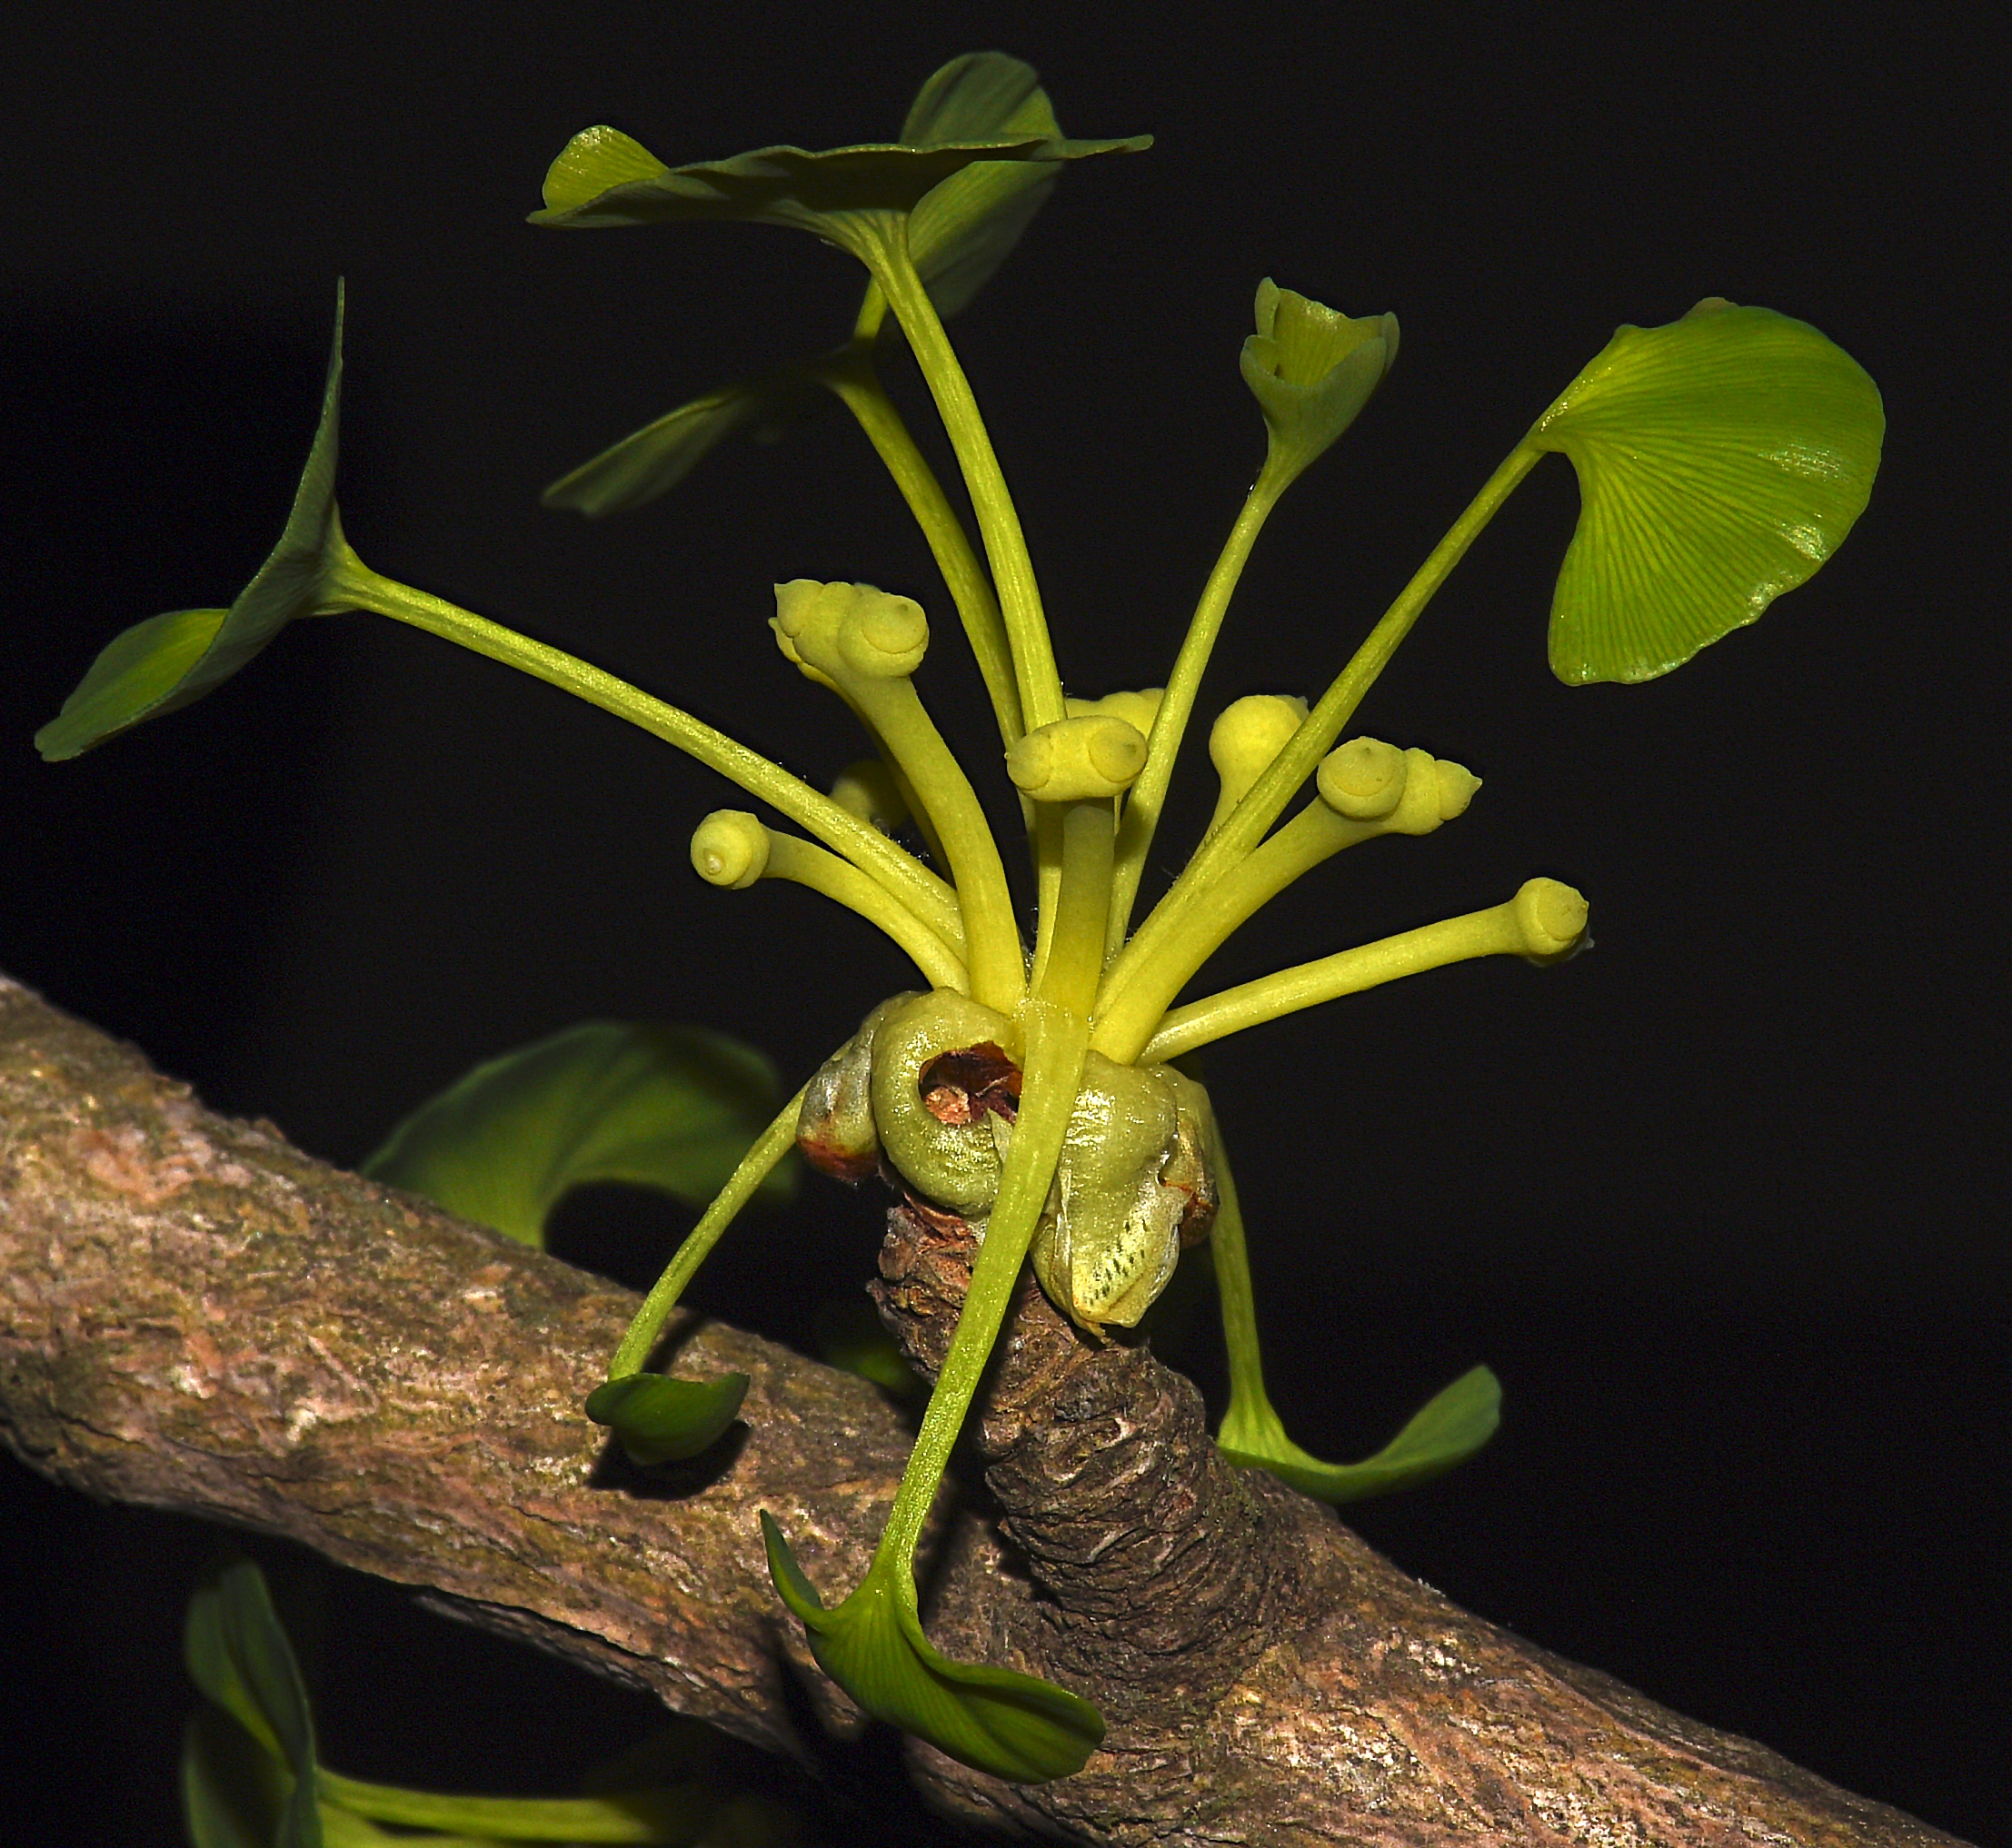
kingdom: Plantae
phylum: Tracheophyta
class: Ginkgoopsida
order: Ginkgoales
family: Ginkgoaceae
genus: Ginkgo
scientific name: Ginkgo biloba
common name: Ginkgo
